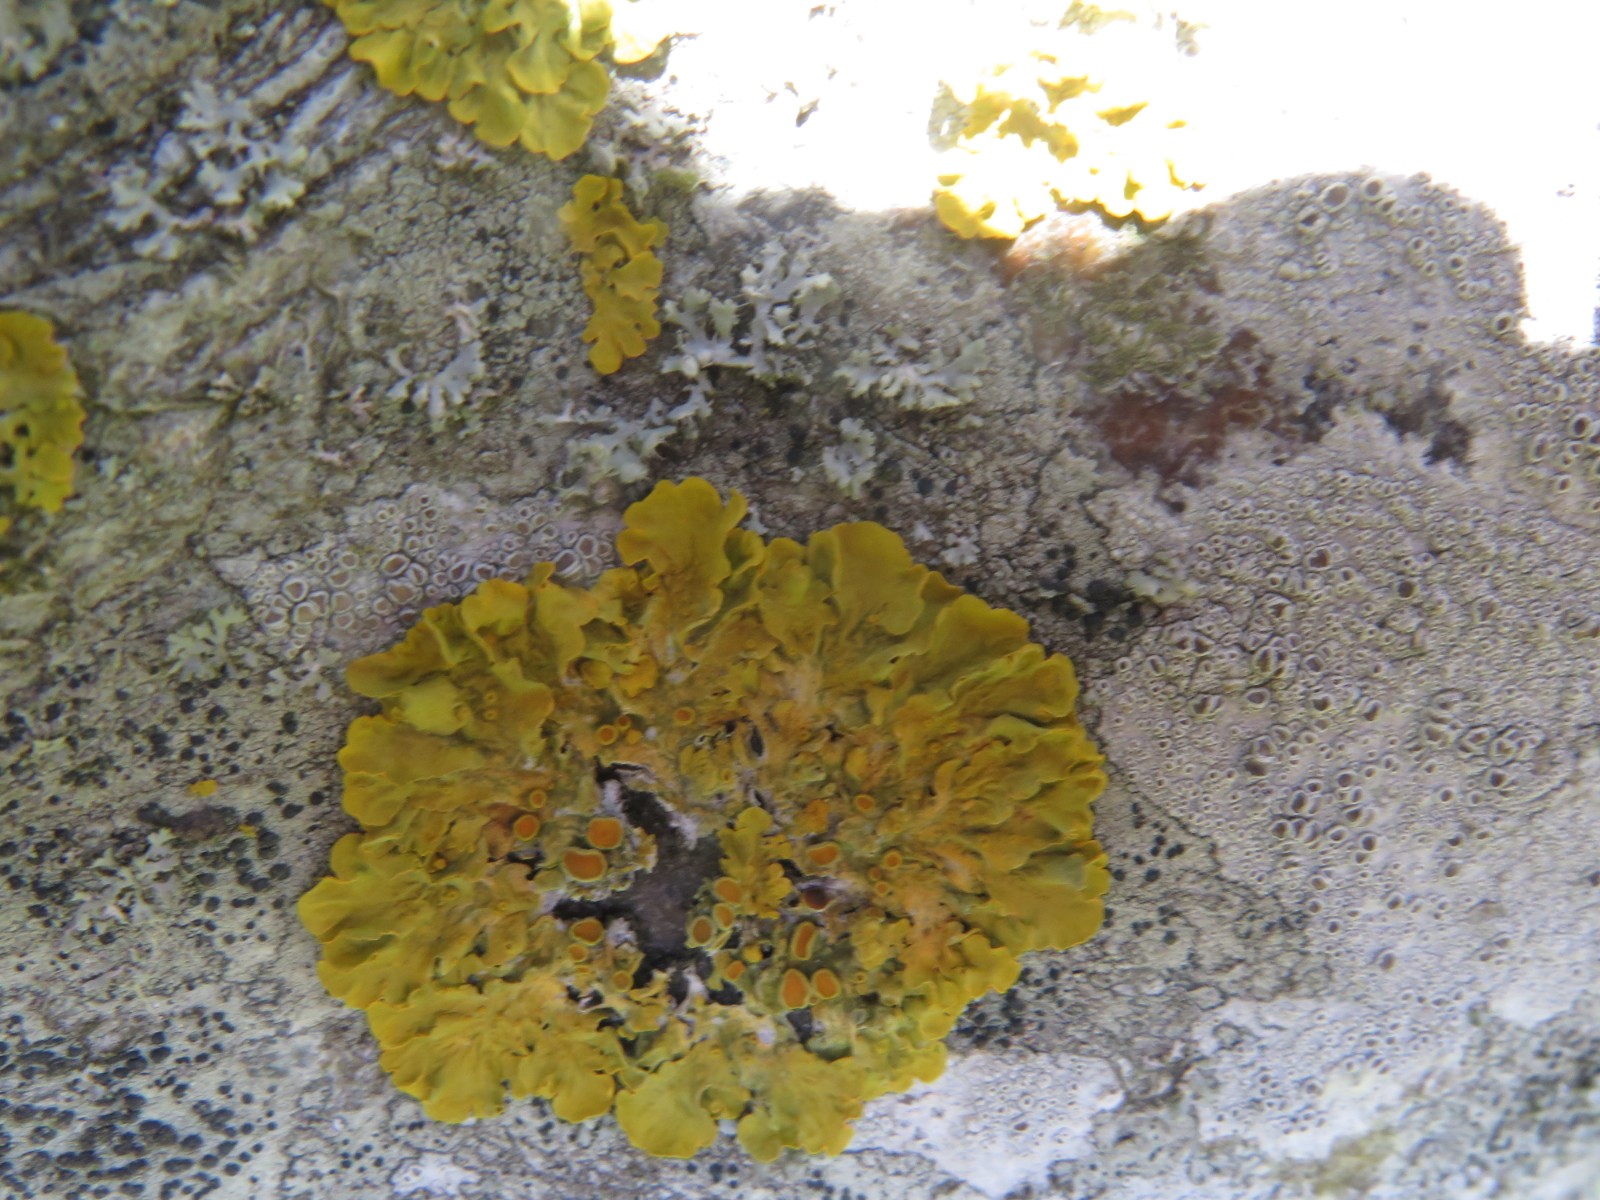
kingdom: Fungi
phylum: Ascomycota
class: Lecanoromycetes
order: Teloschistales
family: Teloschistaceae
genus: Xanthoria
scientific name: Xanthoria parietina
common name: almindelig væggelav
